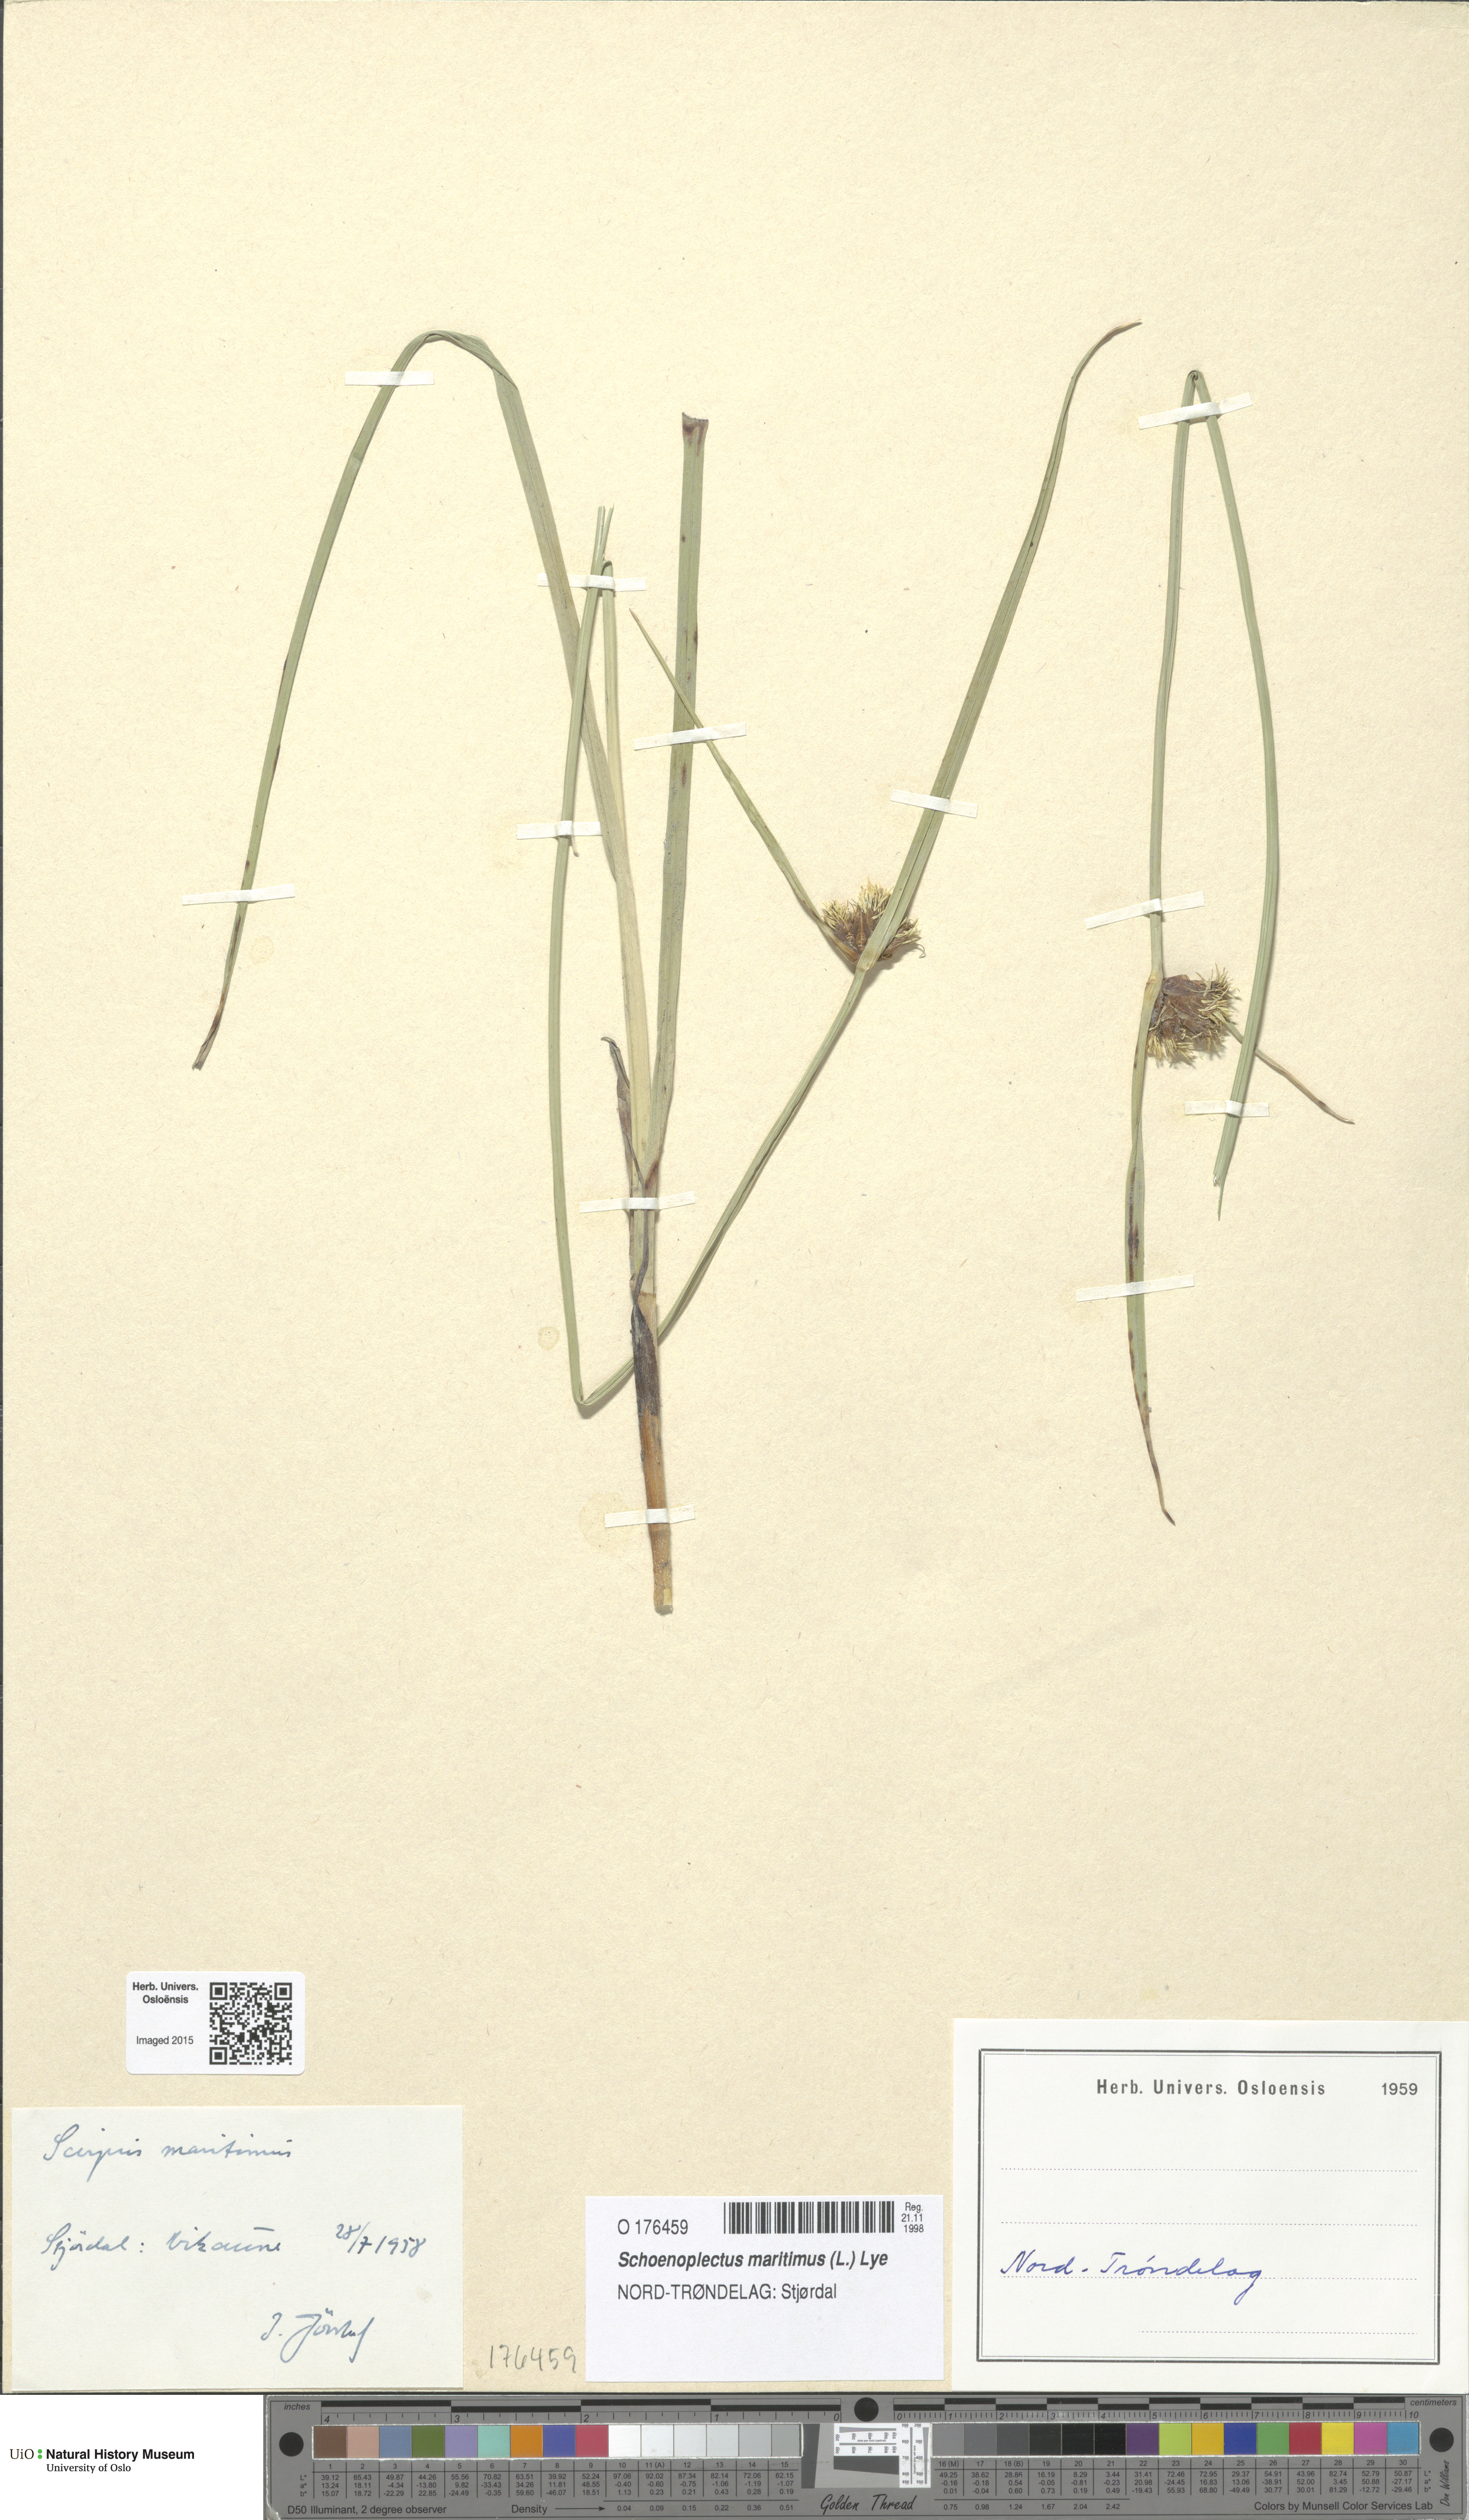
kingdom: Plantae
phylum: Tracheophyta
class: Liliopsida
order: Poales
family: Cyperaceae
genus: Bolboschoenus
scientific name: Bolboschoenus maritimus
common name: Sea club-rush
